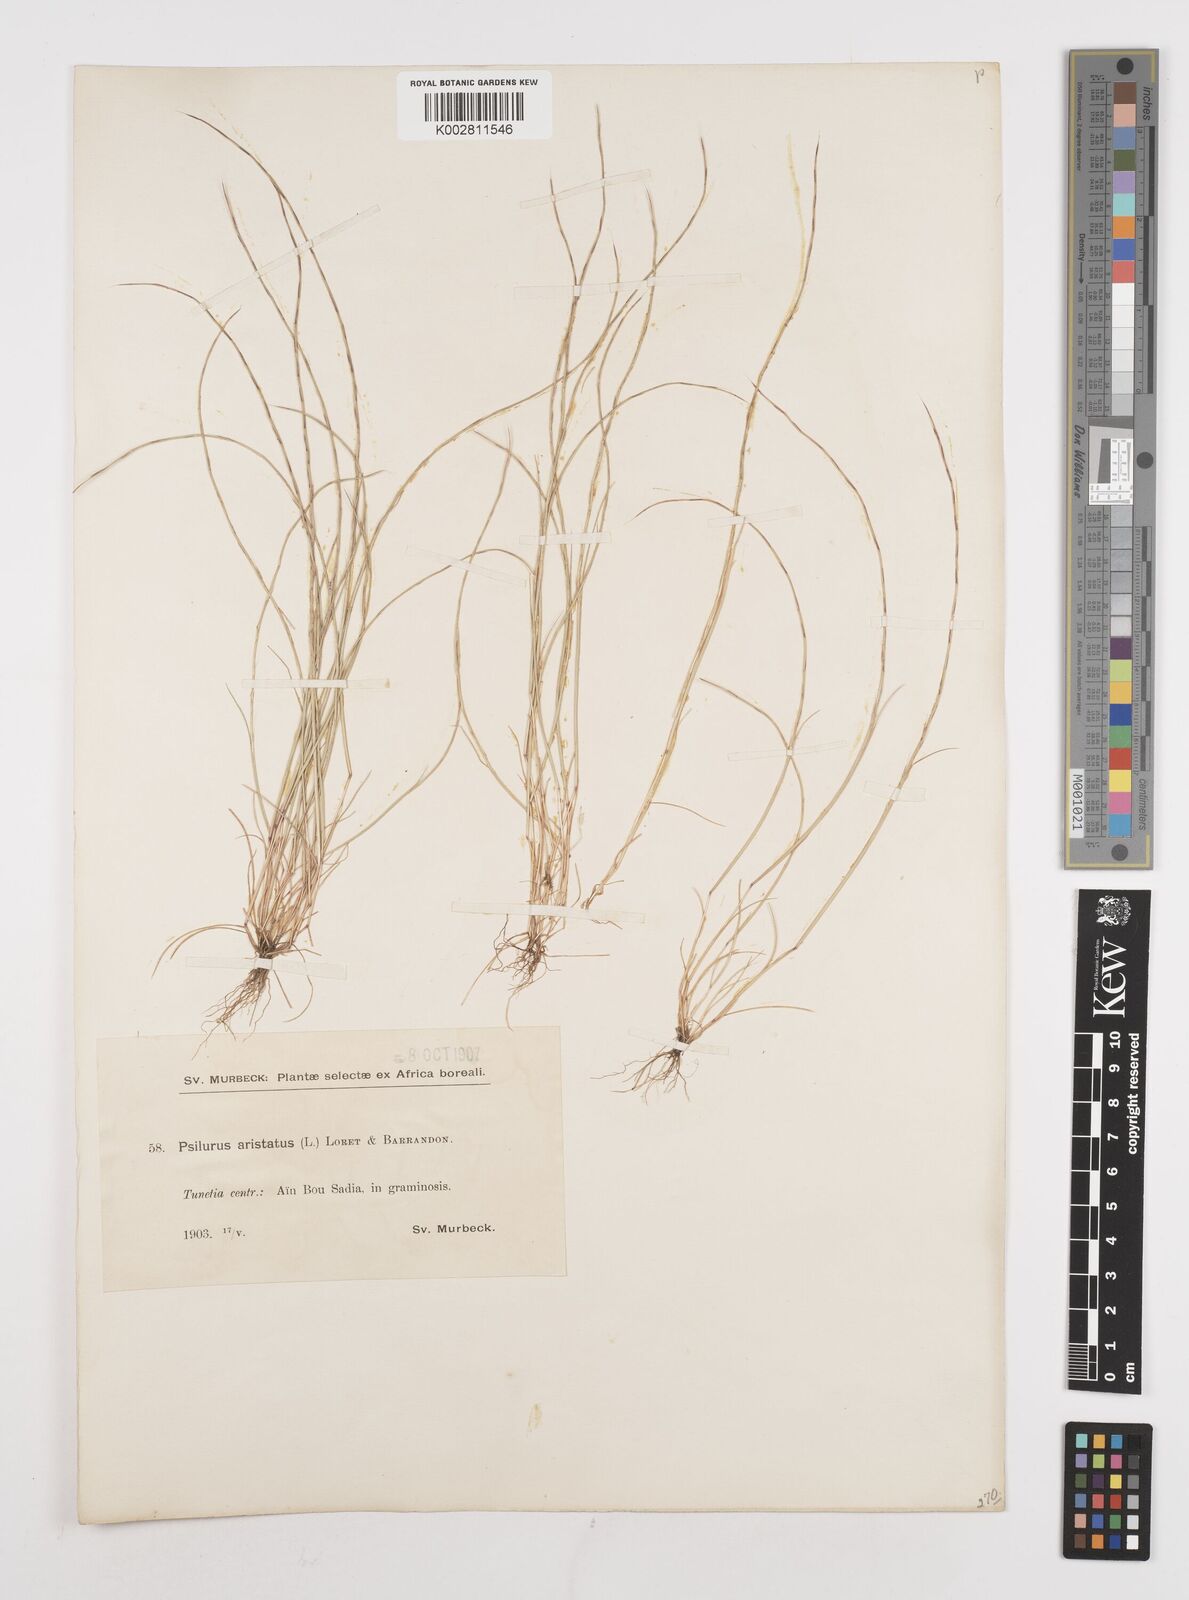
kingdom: Plantae
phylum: Tracheophyta
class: Liliopsida
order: Poales
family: Poaceae
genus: Festuca
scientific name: Festuca
